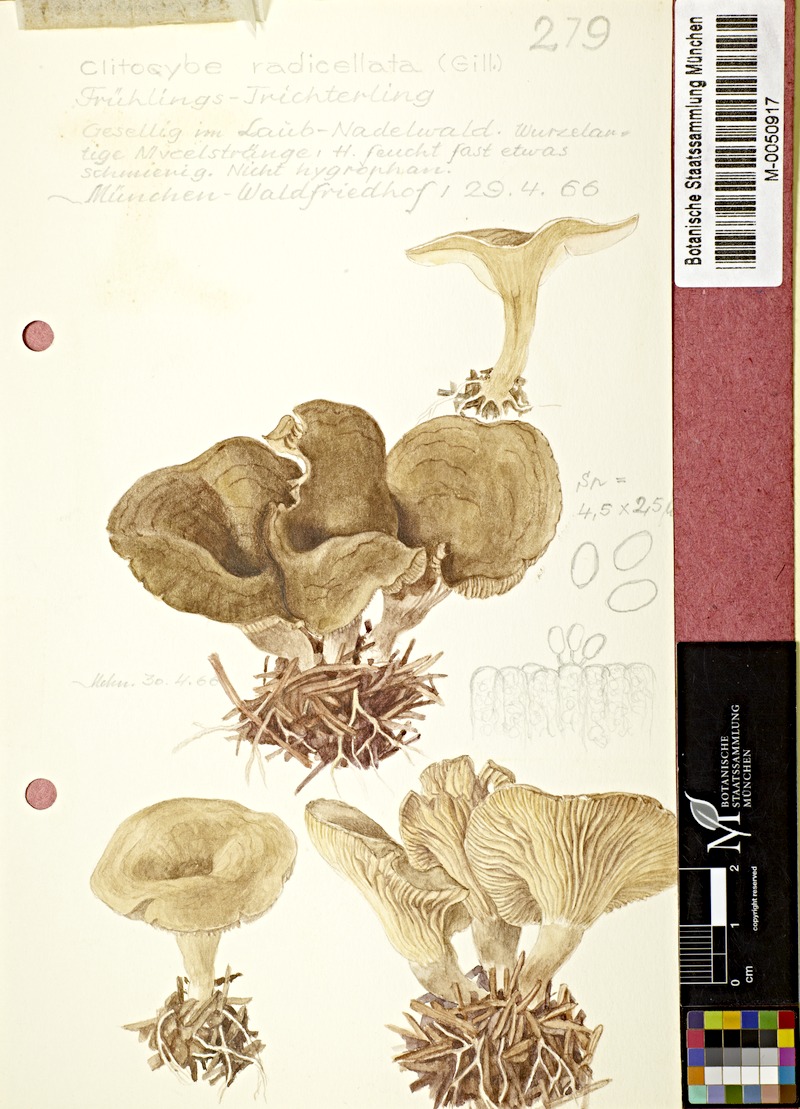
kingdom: Fungi
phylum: Basidiomycota
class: Agaricomycetes
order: Agaricales
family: Tricholomataceae
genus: Rhizocybe
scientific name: Rhizocybe pruinosa
